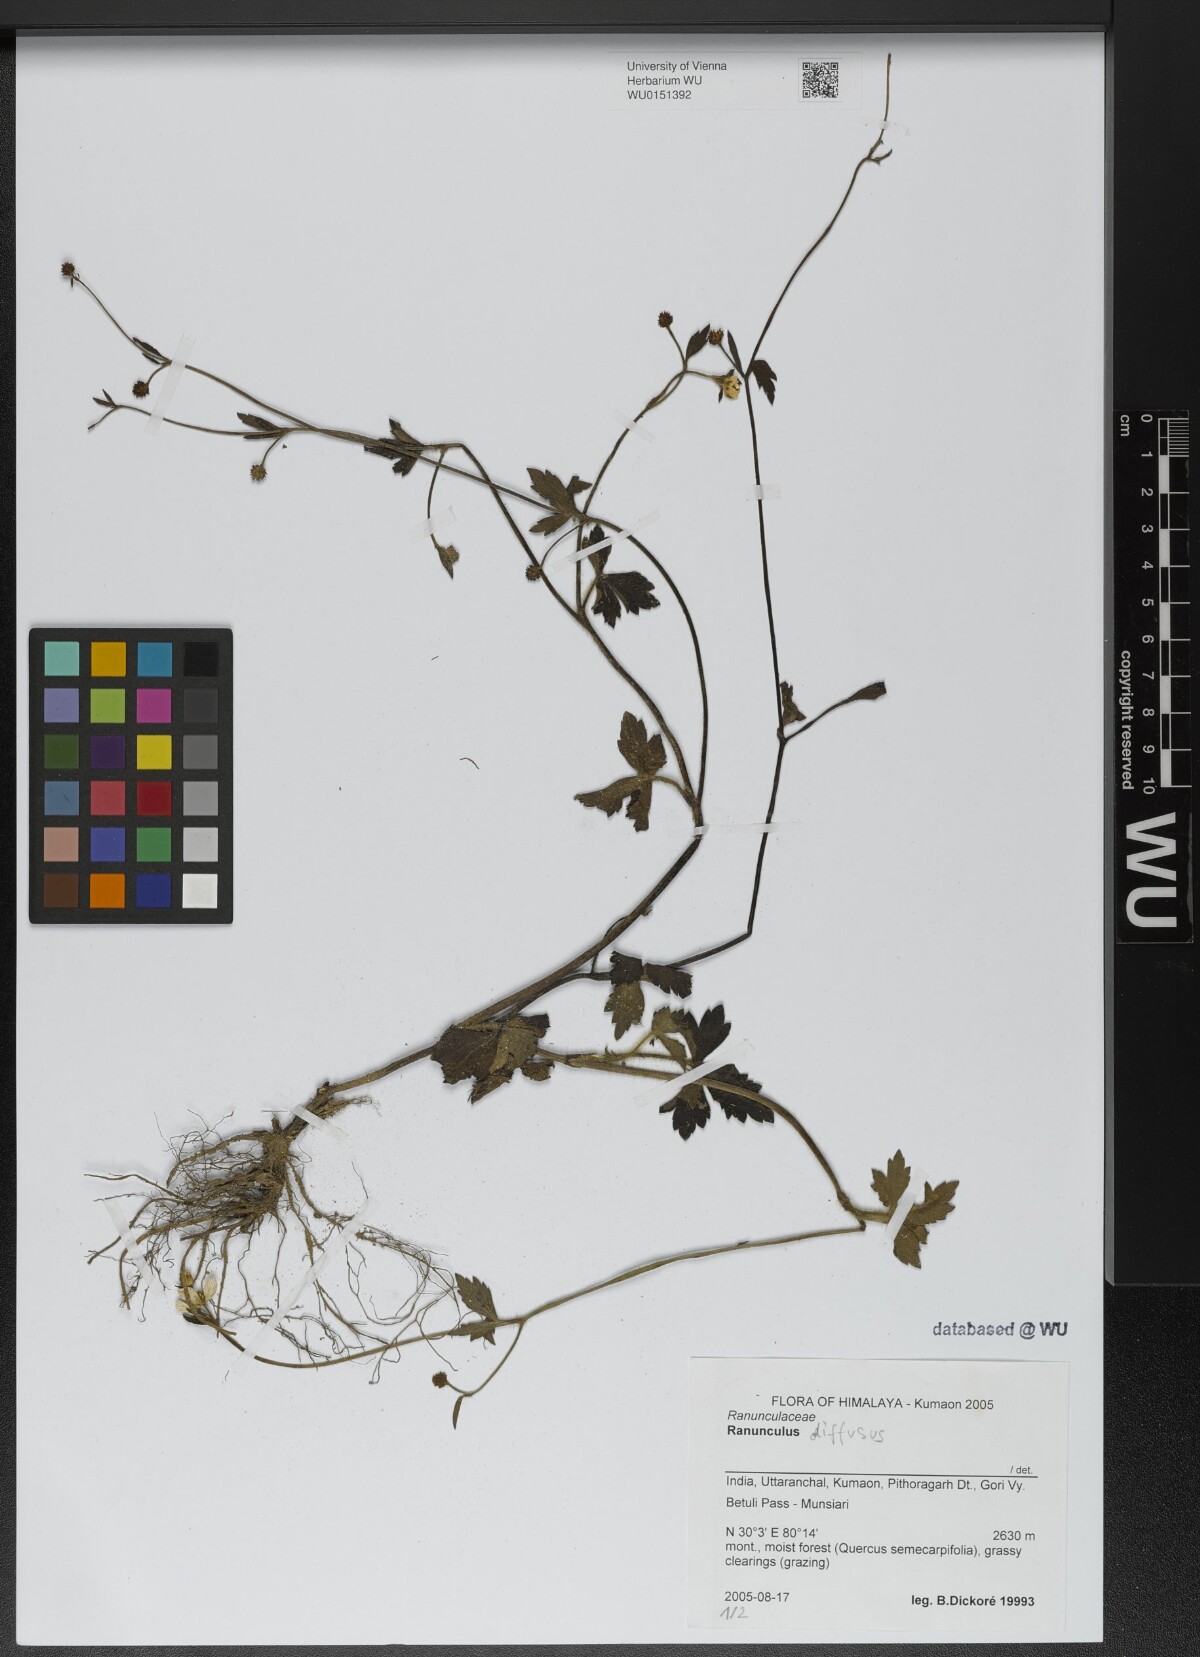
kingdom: Plantae
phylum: Tracheophyta
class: Magnoliopsida
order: Ranunculales
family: Ranunculaceae
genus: Ranunculus
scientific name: Ranunculus diffusus
